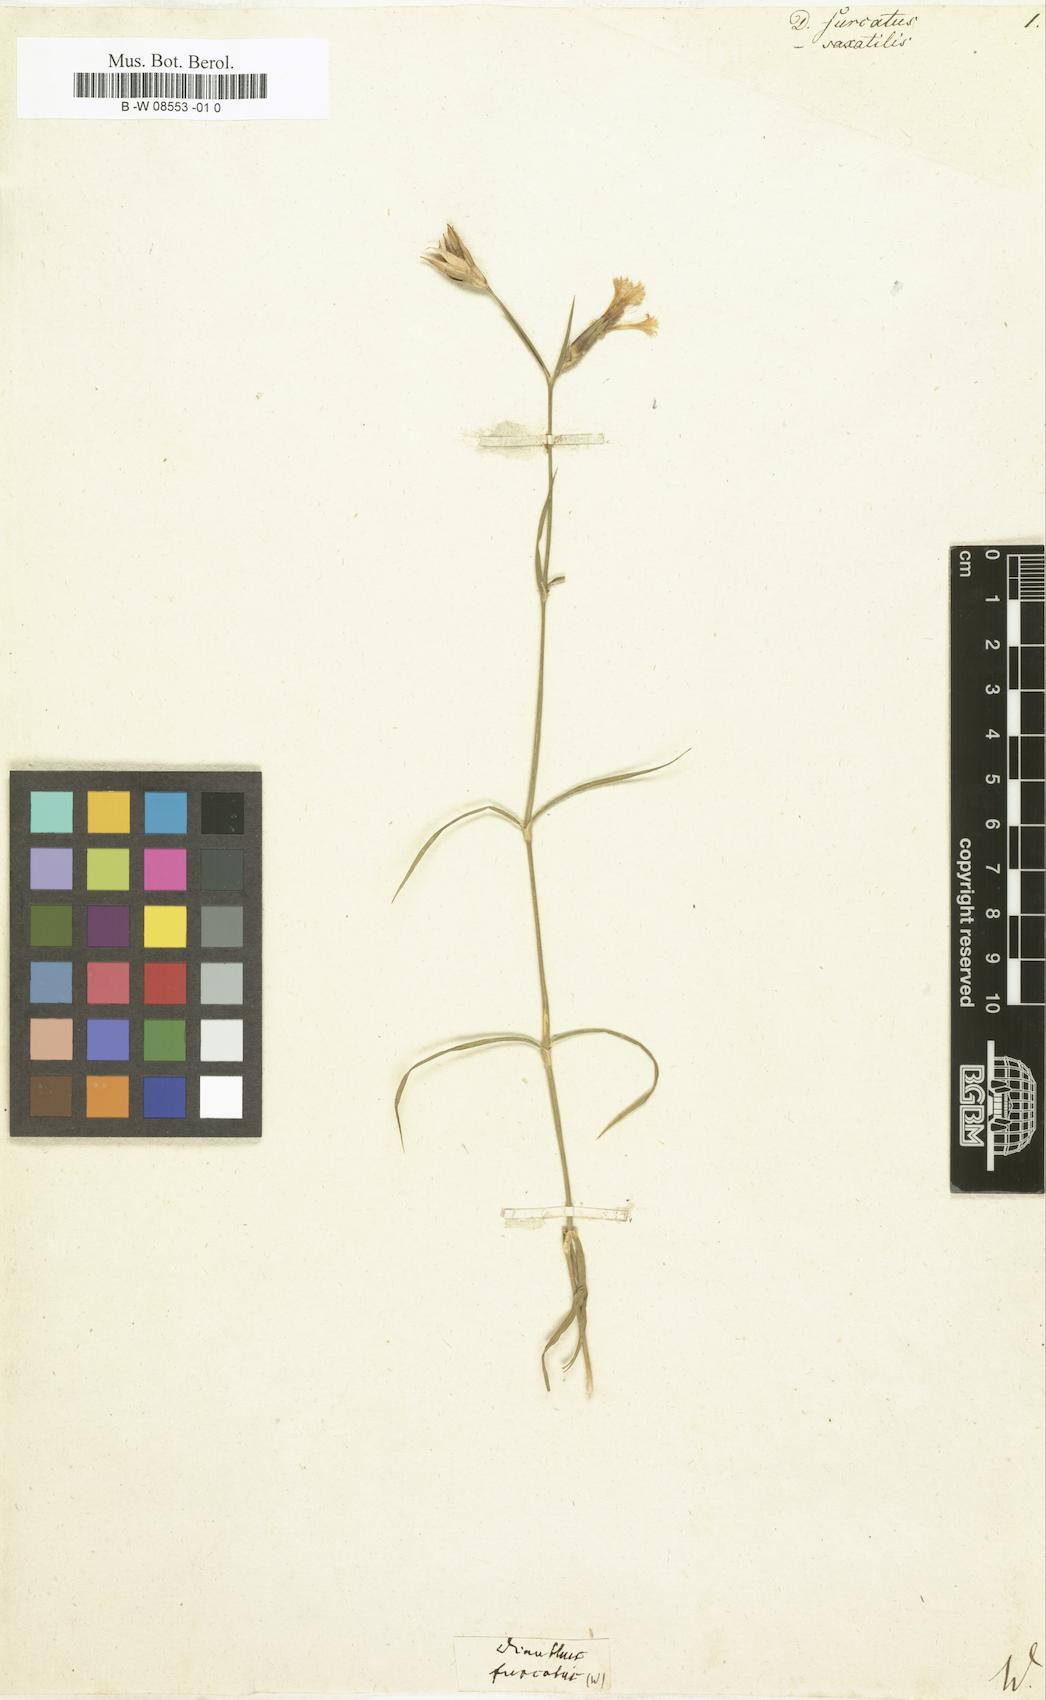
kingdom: Plantae
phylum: Tracheophyta
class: Magnoliopsida
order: Caryophyllales
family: Caryophyllaceae
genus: Dianthus
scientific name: Dianthus furcatus
